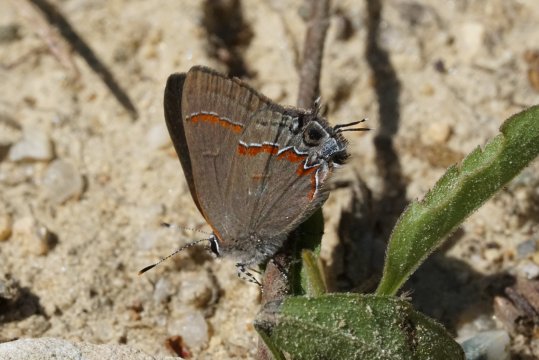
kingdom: Animalia
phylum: Arthropoda
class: Insecta
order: Lepidoptera
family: Lycaenidae
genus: Calycopis
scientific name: Calycopis cecrops
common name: Red-banded Hairstreak
